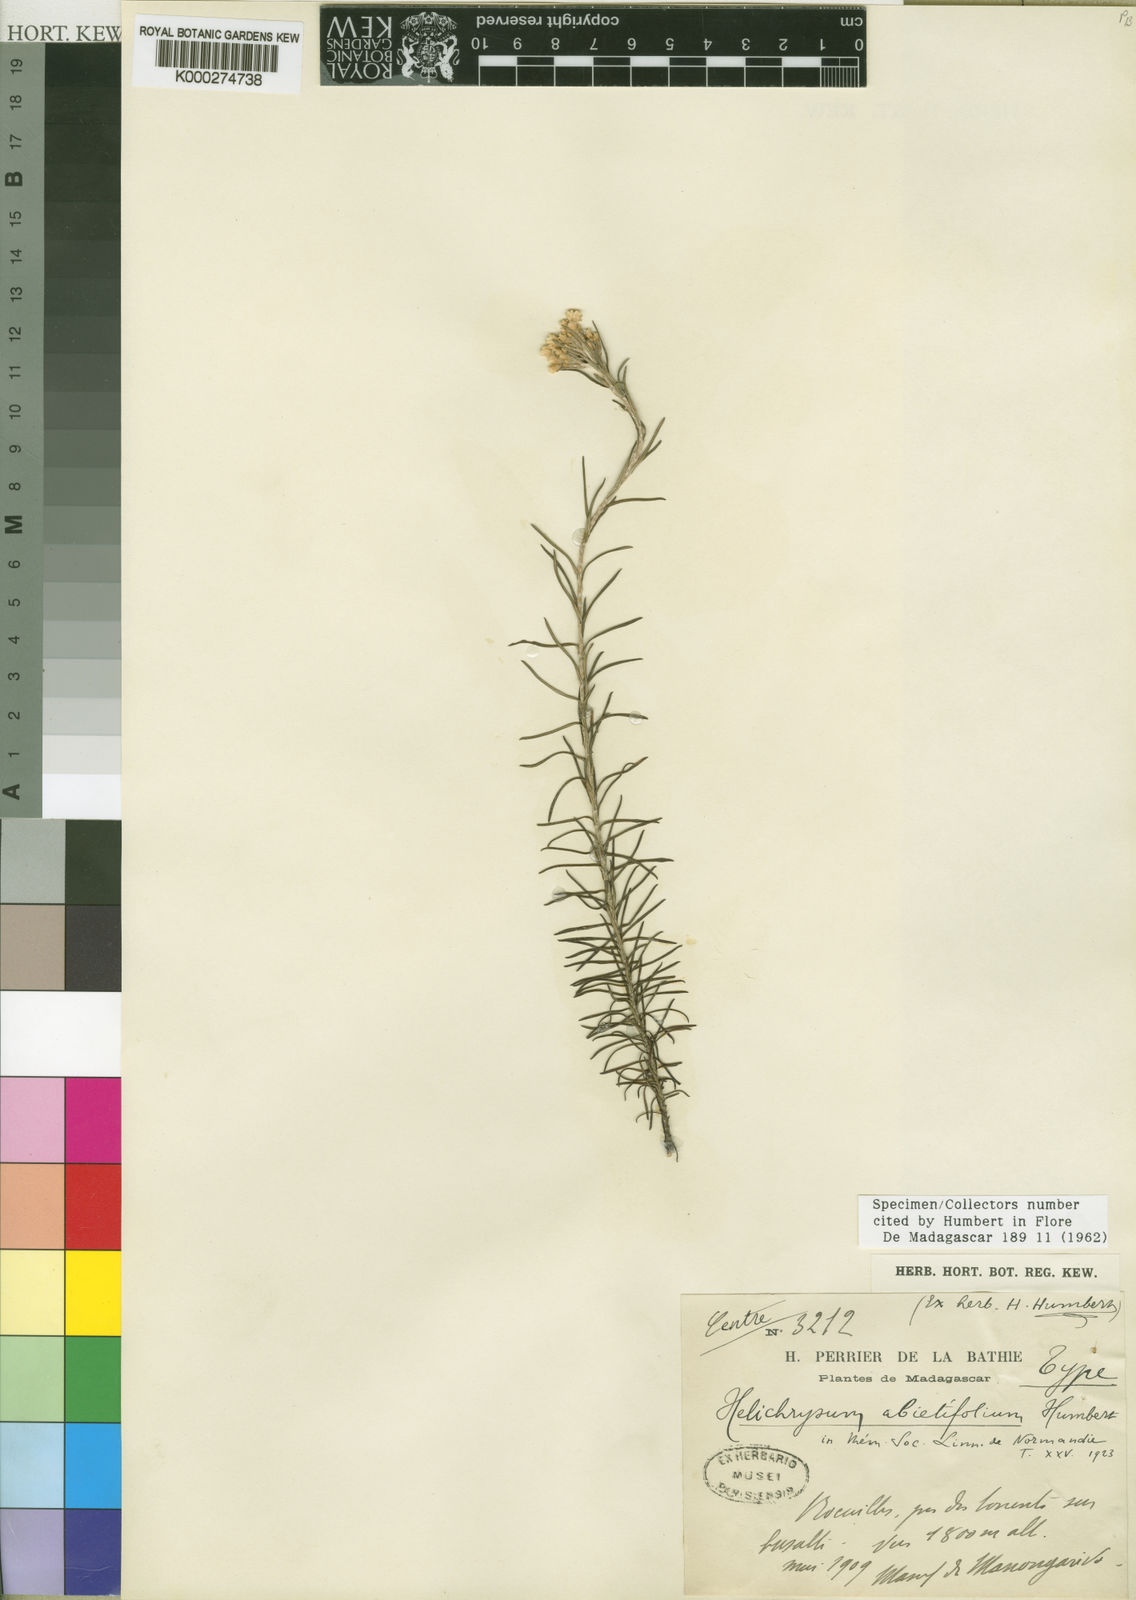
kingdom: Plantae
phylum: Tracheophyta
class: Magnoliopsida
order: Asterales
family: Asteraceae
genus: Helichrysum
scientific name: Helichrysum abietifolium
